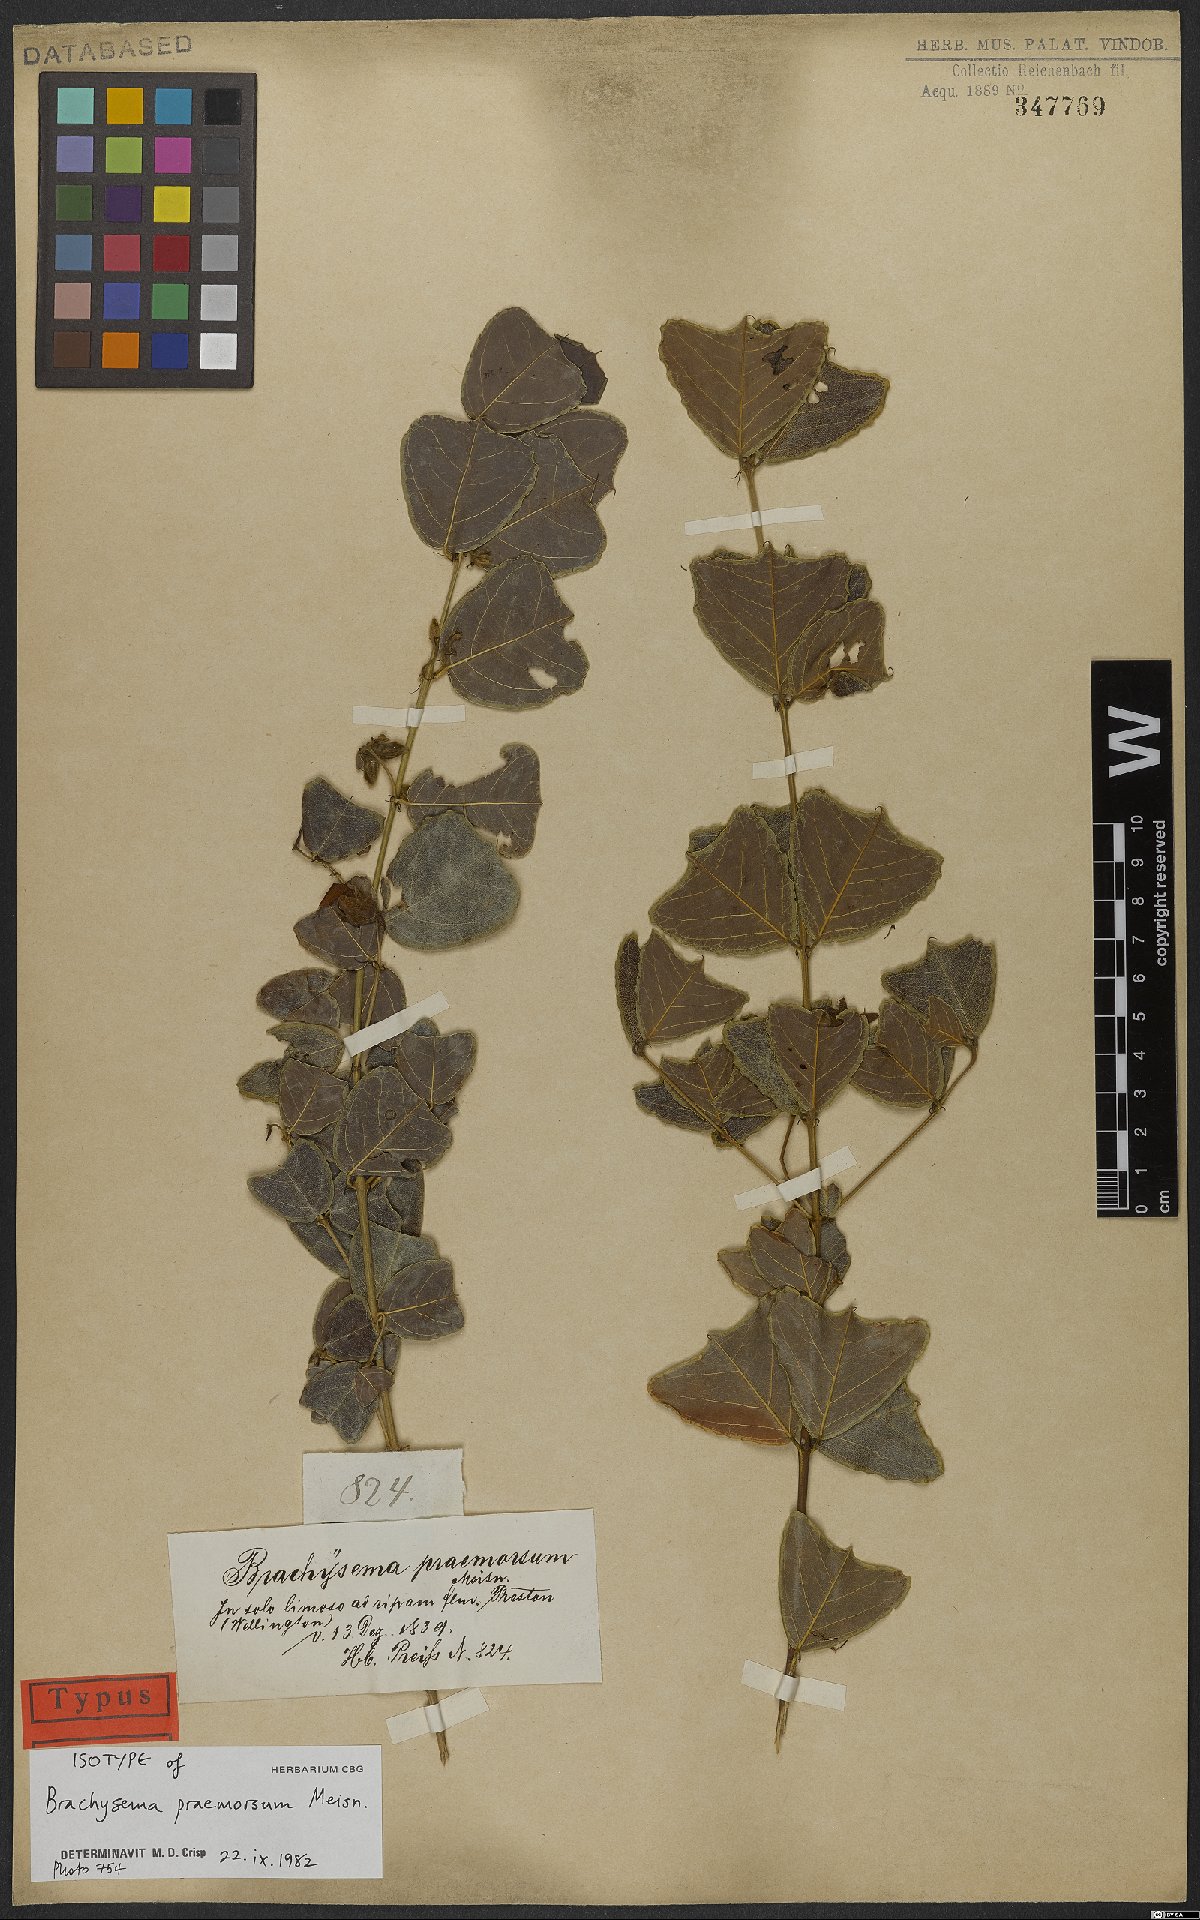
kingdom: Plantae
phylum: Tracheophyta
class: Magnoliopsida
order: Fabales
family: Fabaceae
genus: Gastrolobium
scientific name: Gastrolobium praemorsum
